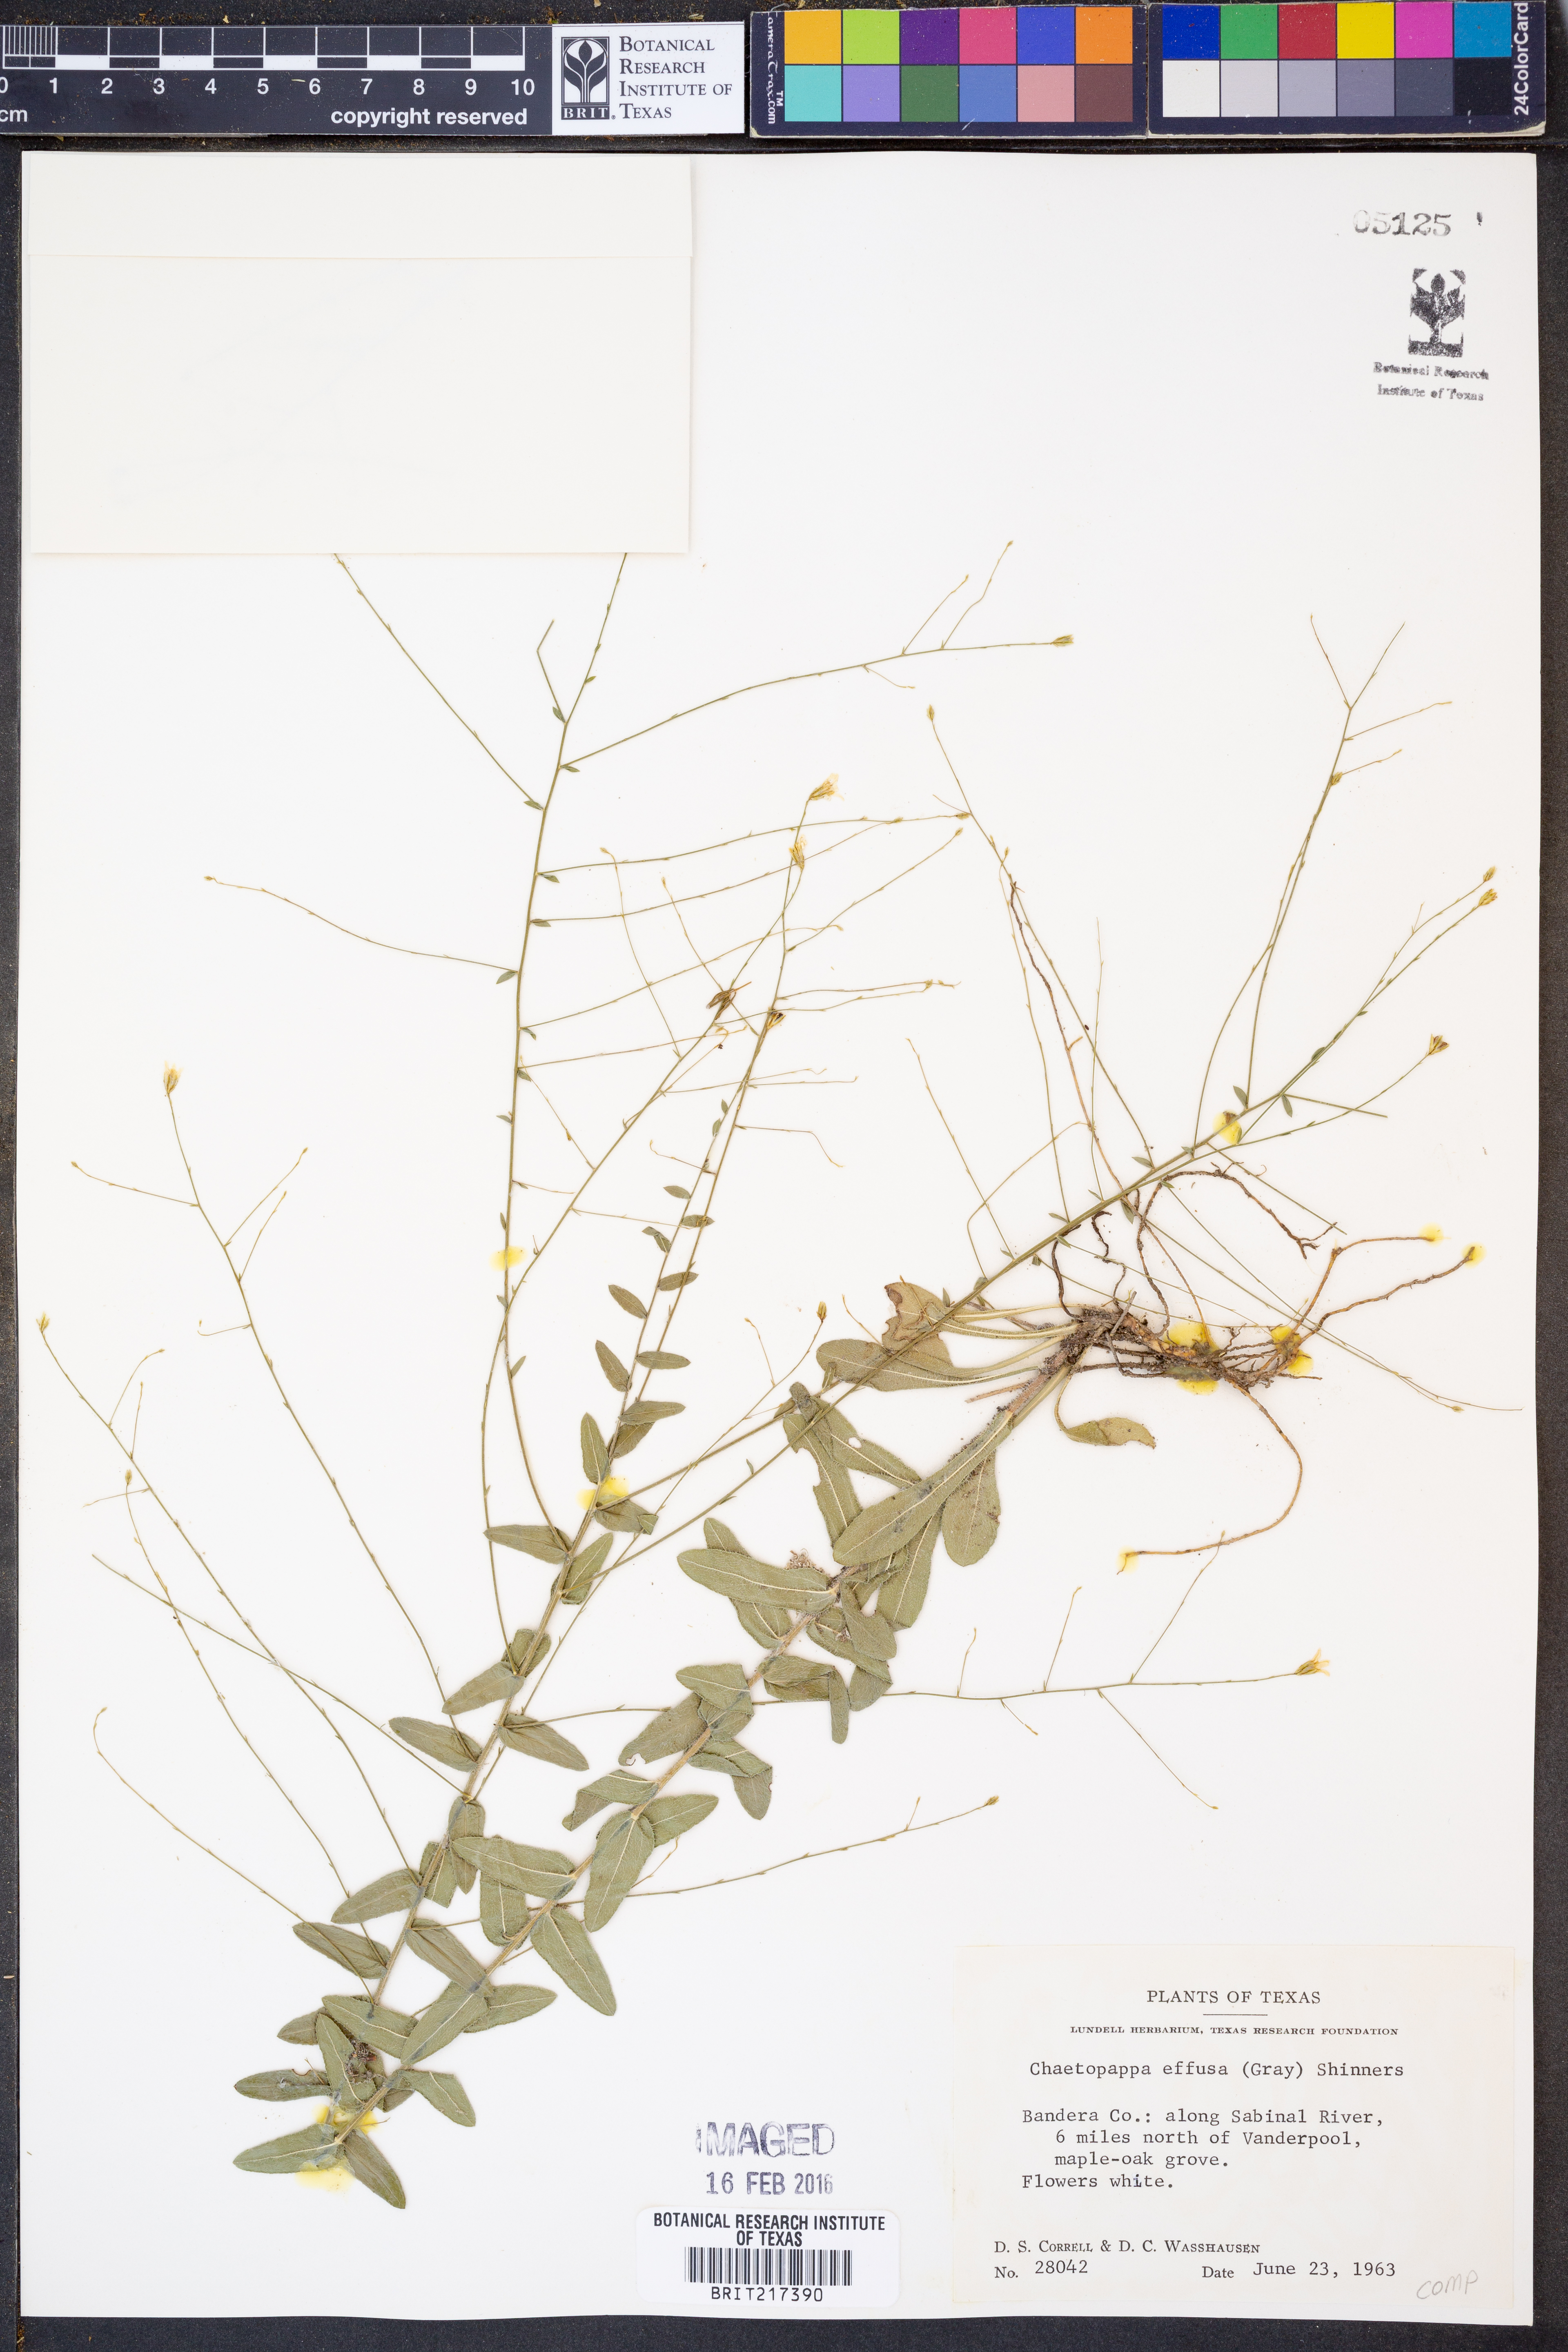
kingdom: Plantae
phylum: Tracheophyta
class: Magnoliopsida
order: Asterales
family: Asteraceae
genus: Chaetopappa
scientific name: Chaetopappa effusa
